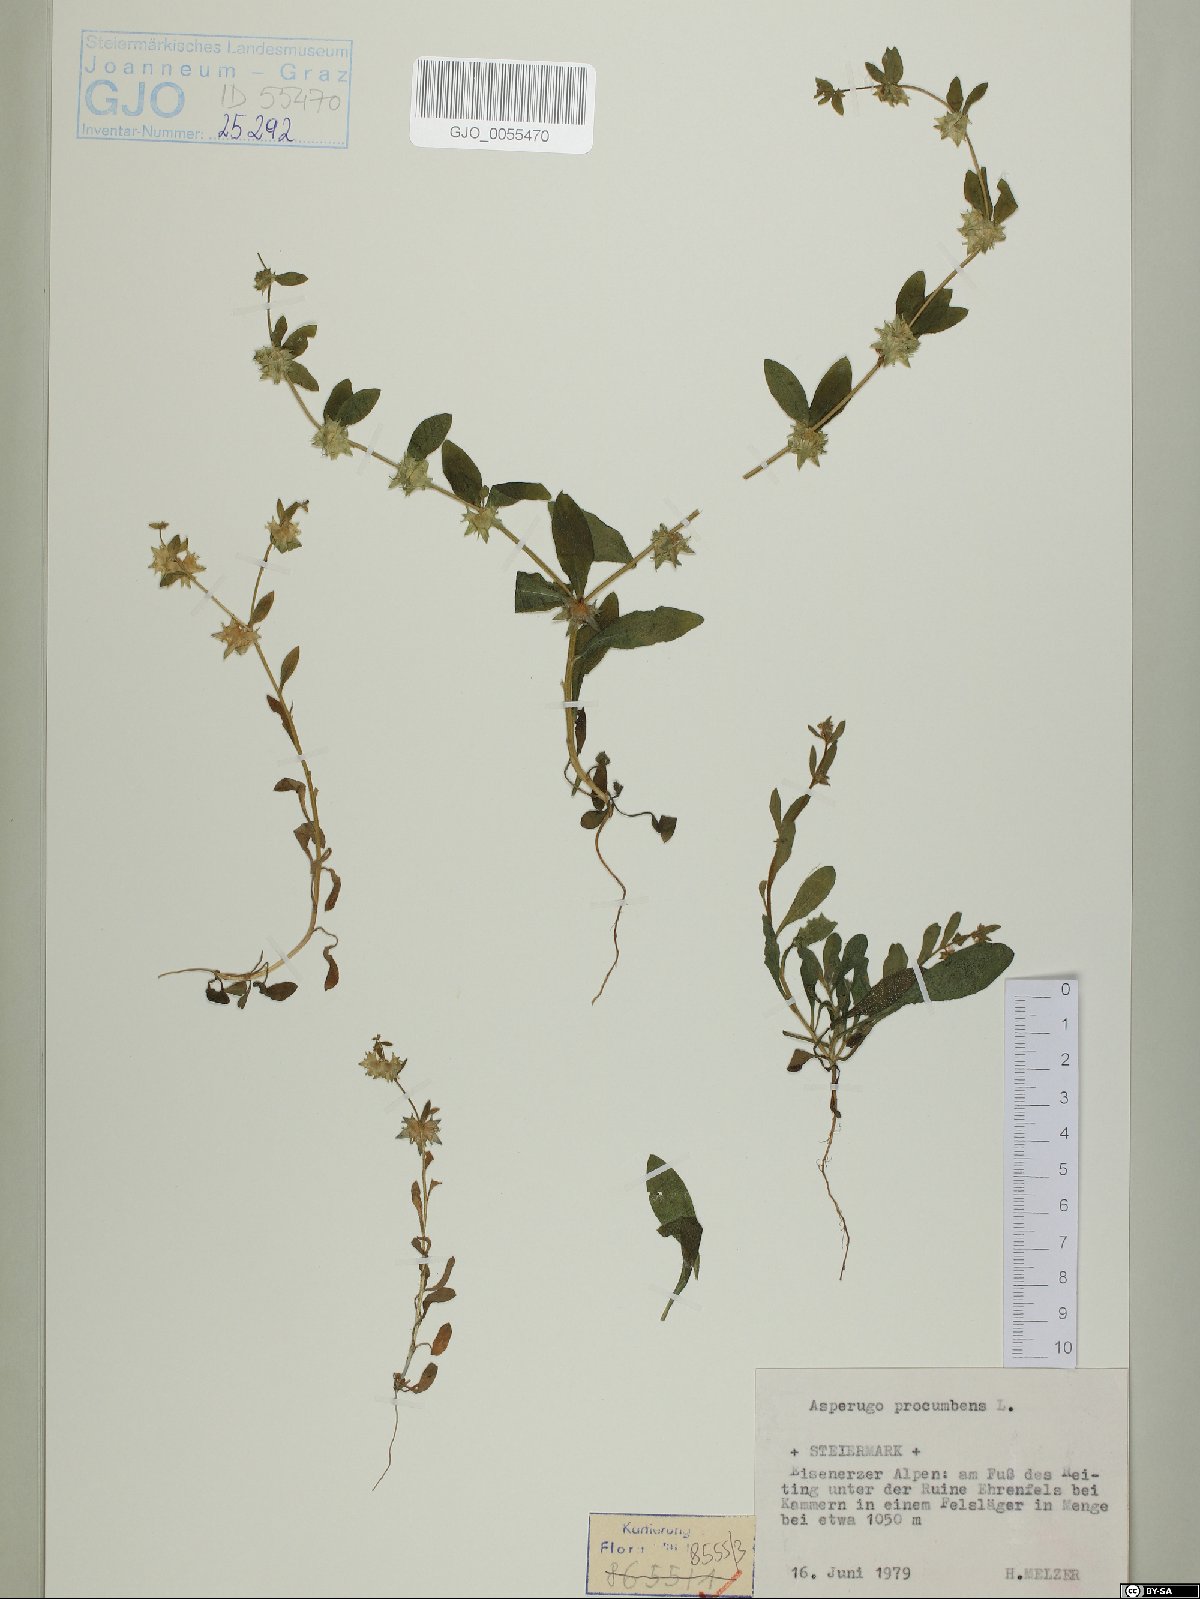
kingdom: Plantae
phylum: Tracheophyta
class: Magnoliopsida
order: Boraginales
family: Boraginaceae
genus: Asperugo
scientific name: Asperugo procumbens
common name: Madwort
